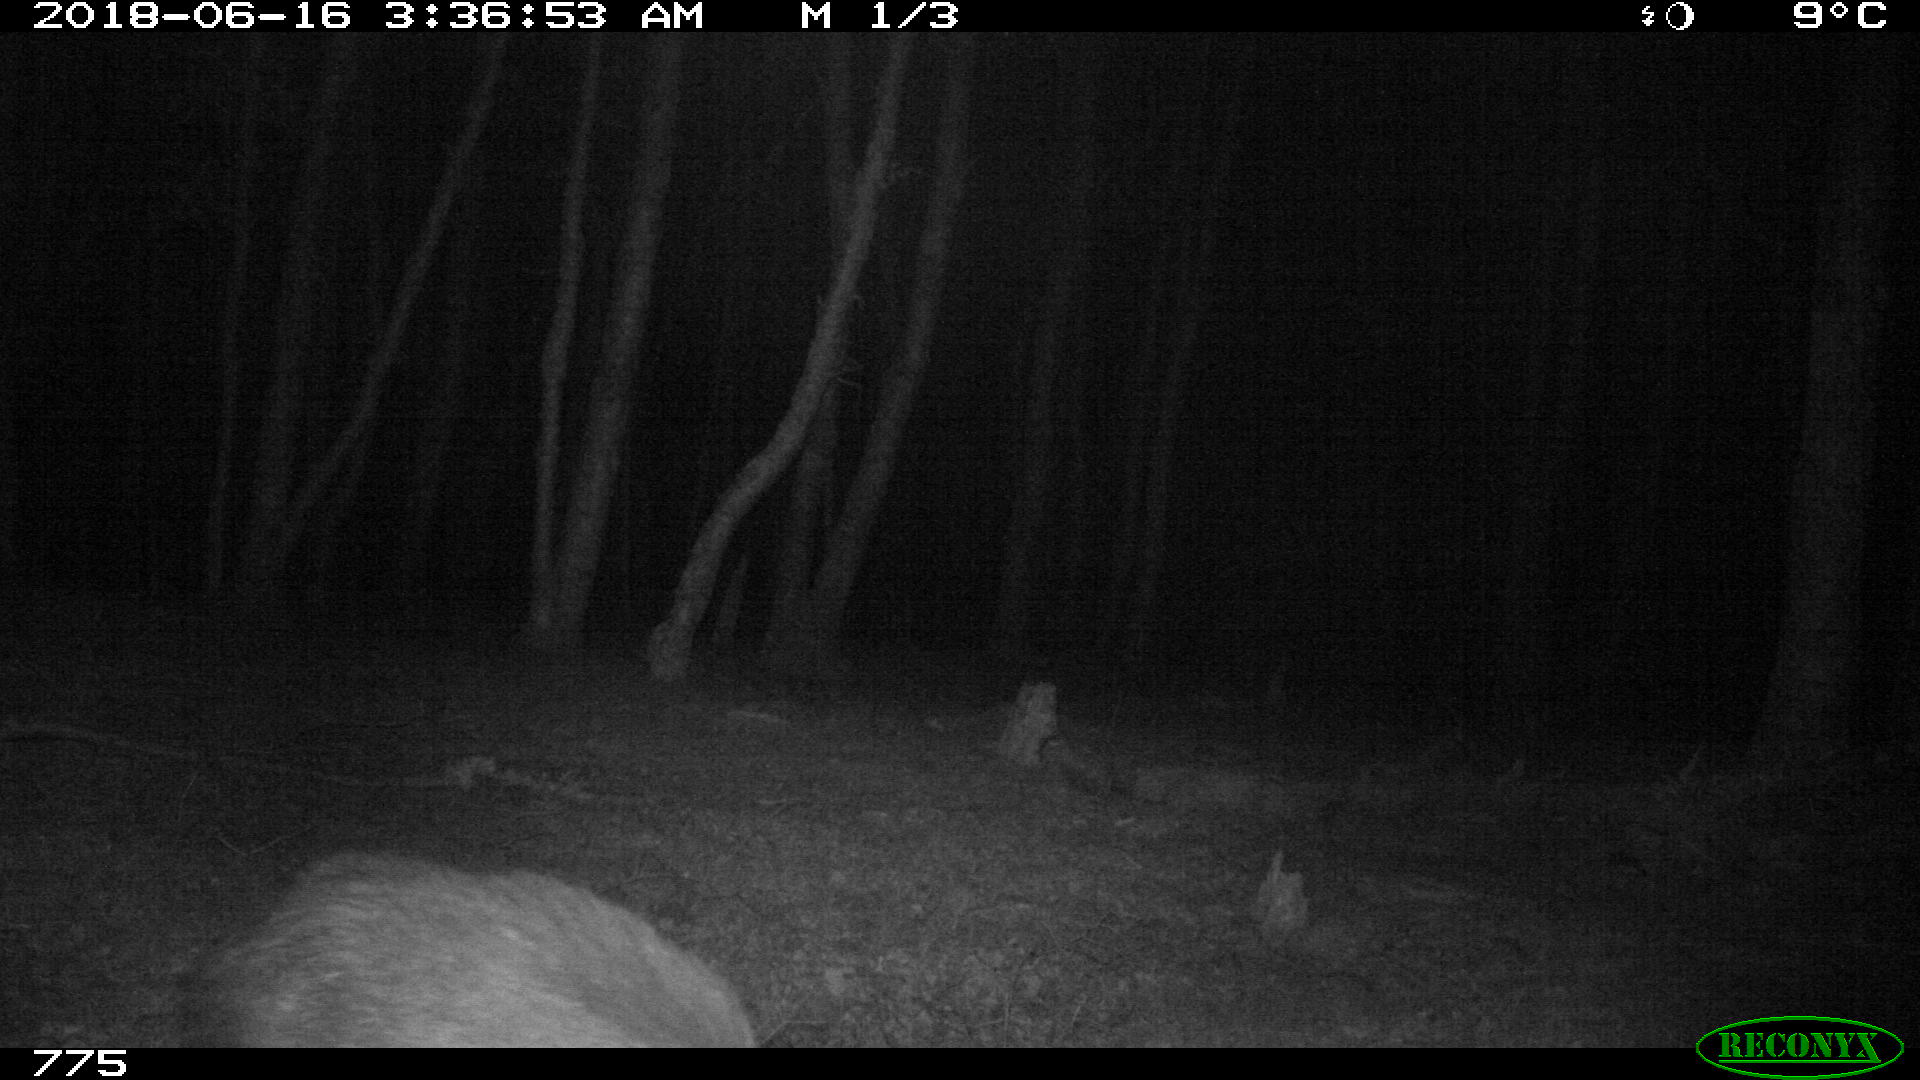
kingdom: Animalia
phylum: Chordata
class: Mammalia
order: Artiodactyla
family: Suidae
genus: Sus
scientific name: Sus scrofa
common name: Wild boar
